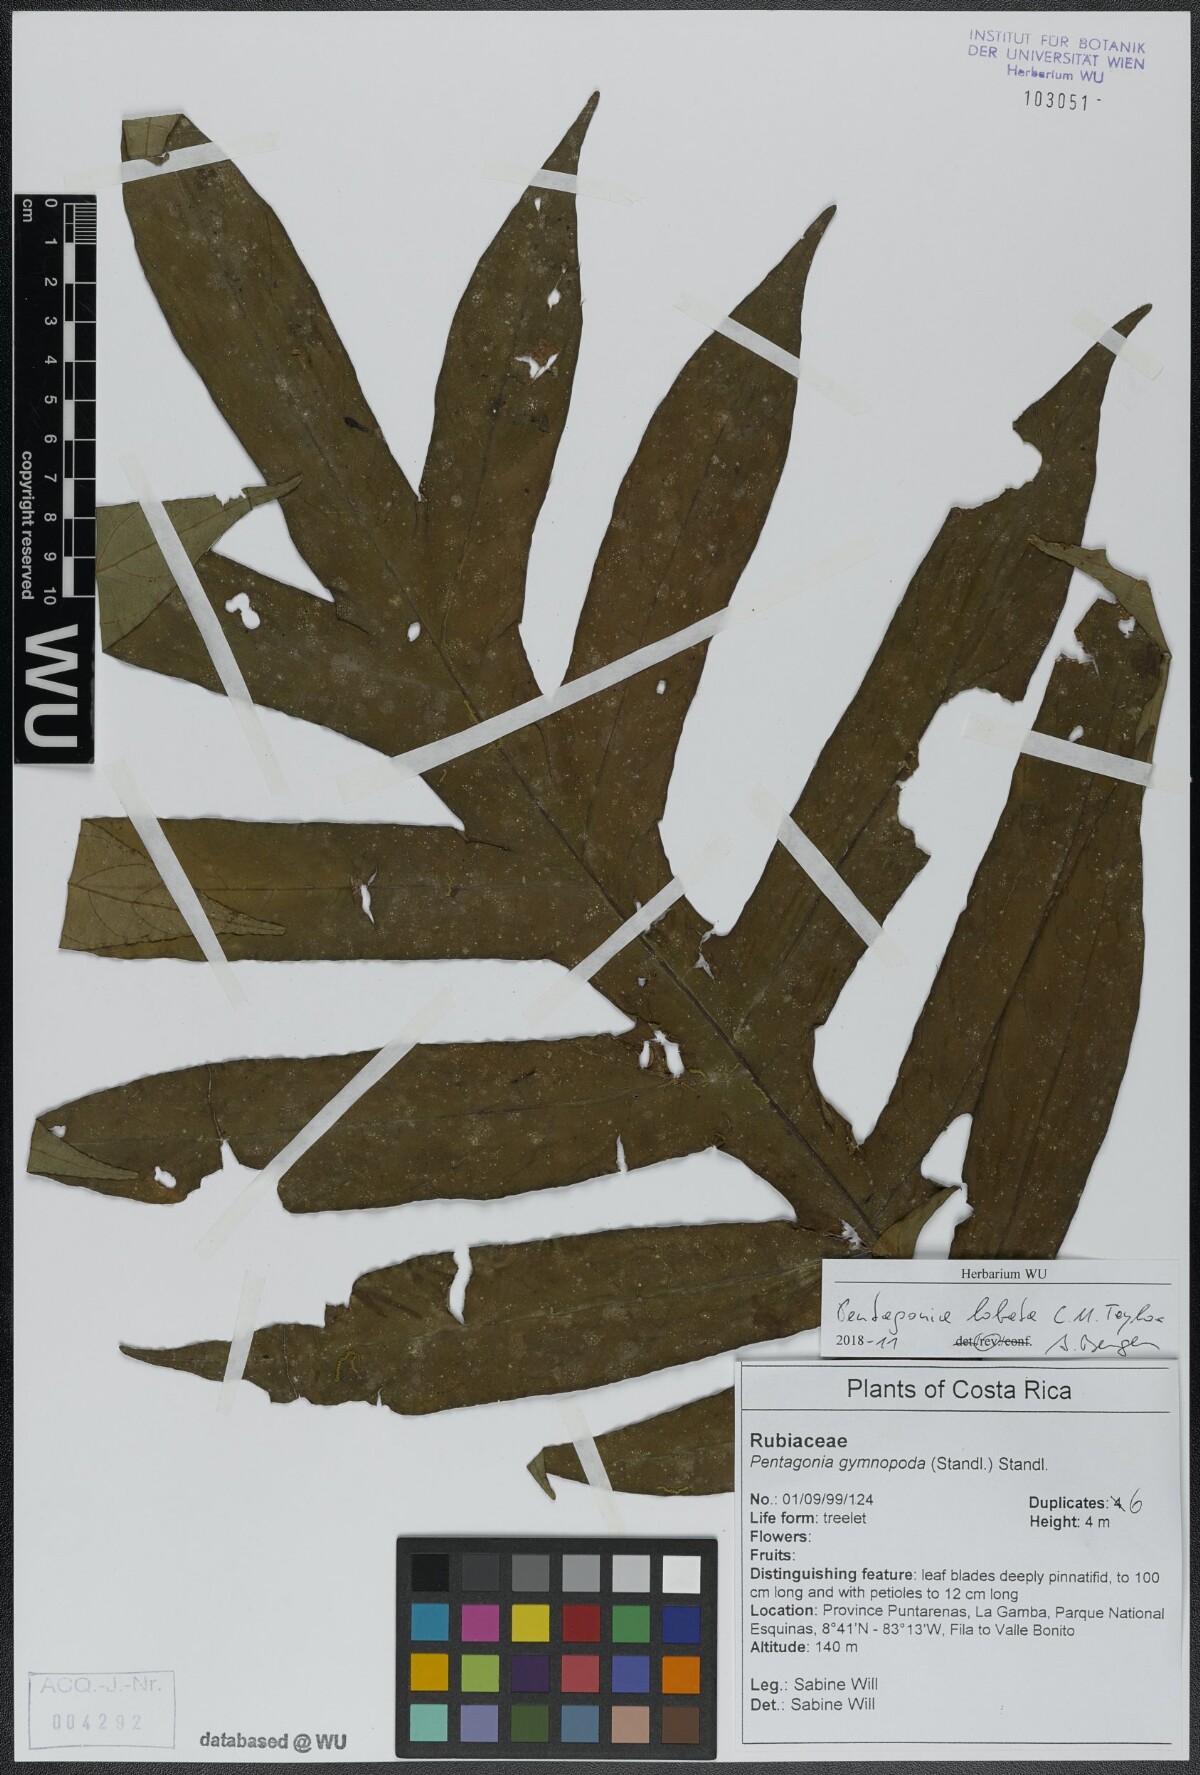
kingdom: Plantae
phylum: Tracheophyta
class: Magnoliopsida
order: Gentianales
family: Rubiaceae
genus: Pentagonia
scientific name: Pentagonia lobata
